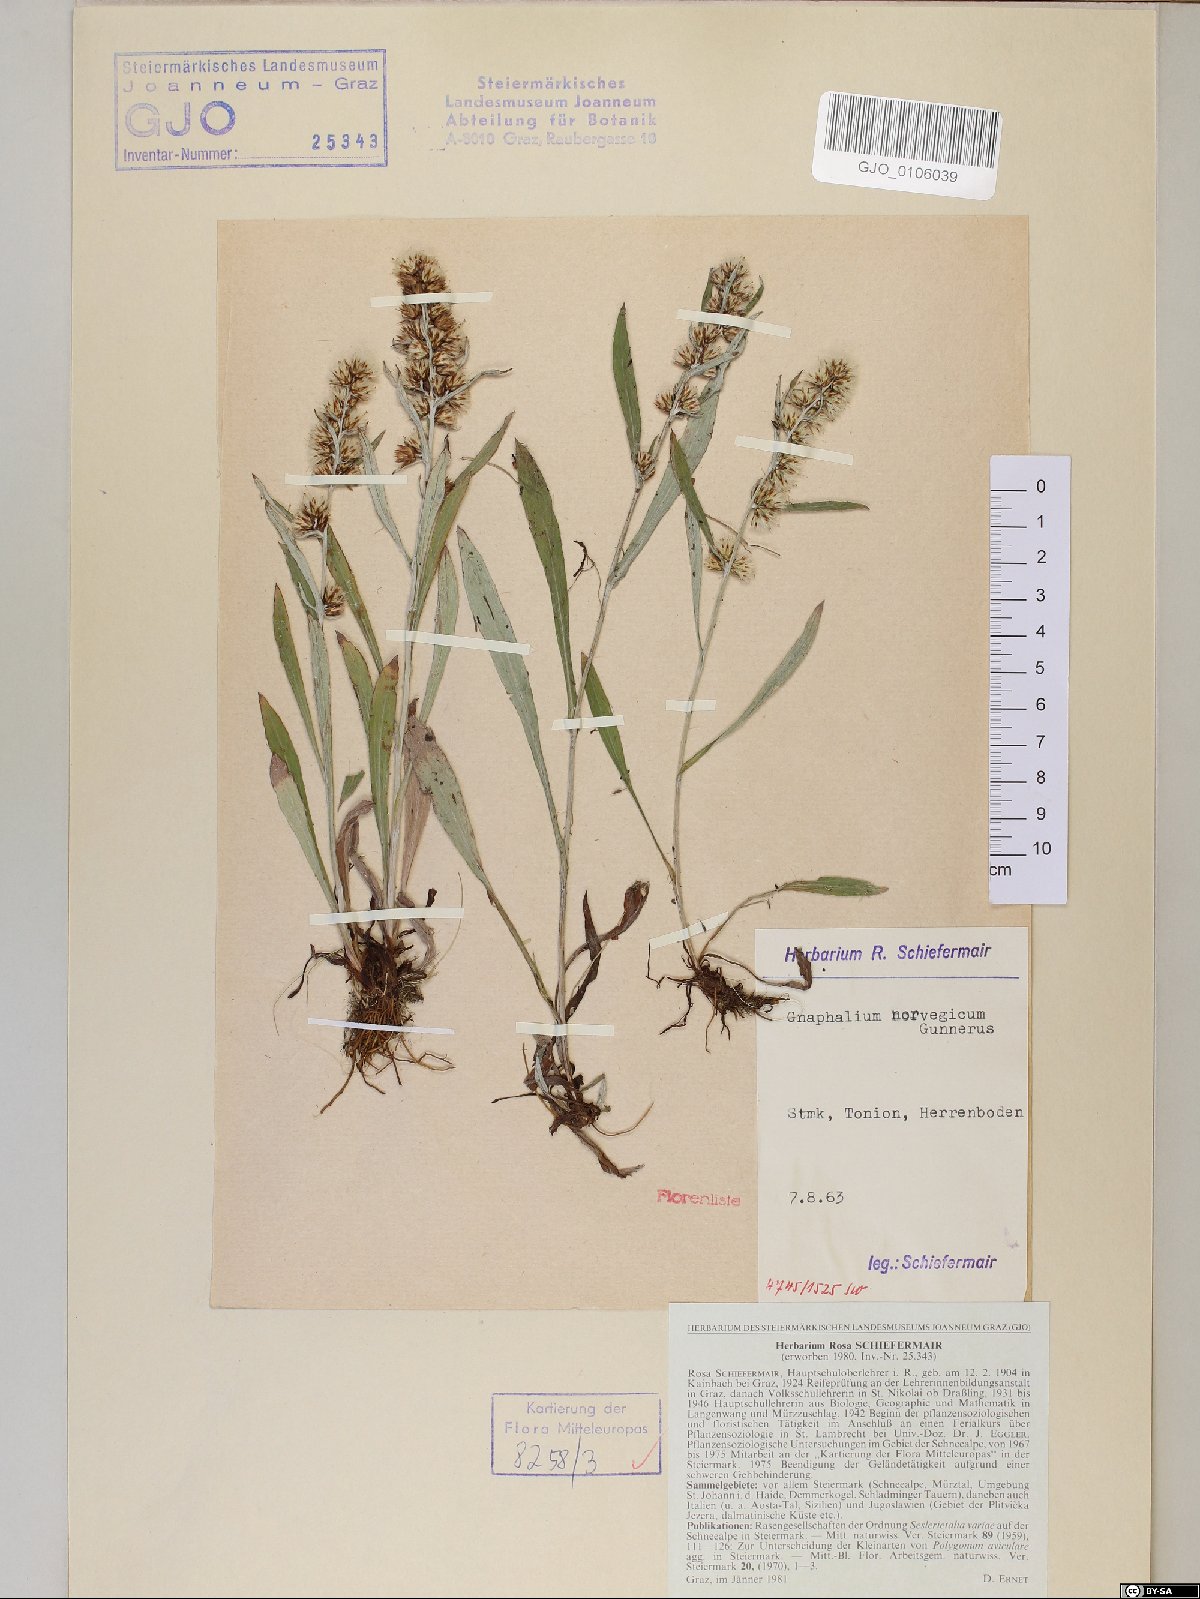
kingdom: Plantae
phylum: Tracheophyta
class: Magnoliopsida
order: Asterales
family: Asteraceae
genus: Omalotheca
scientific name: Omalotheca norvegica
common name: Norwegian arctic-cudweed
